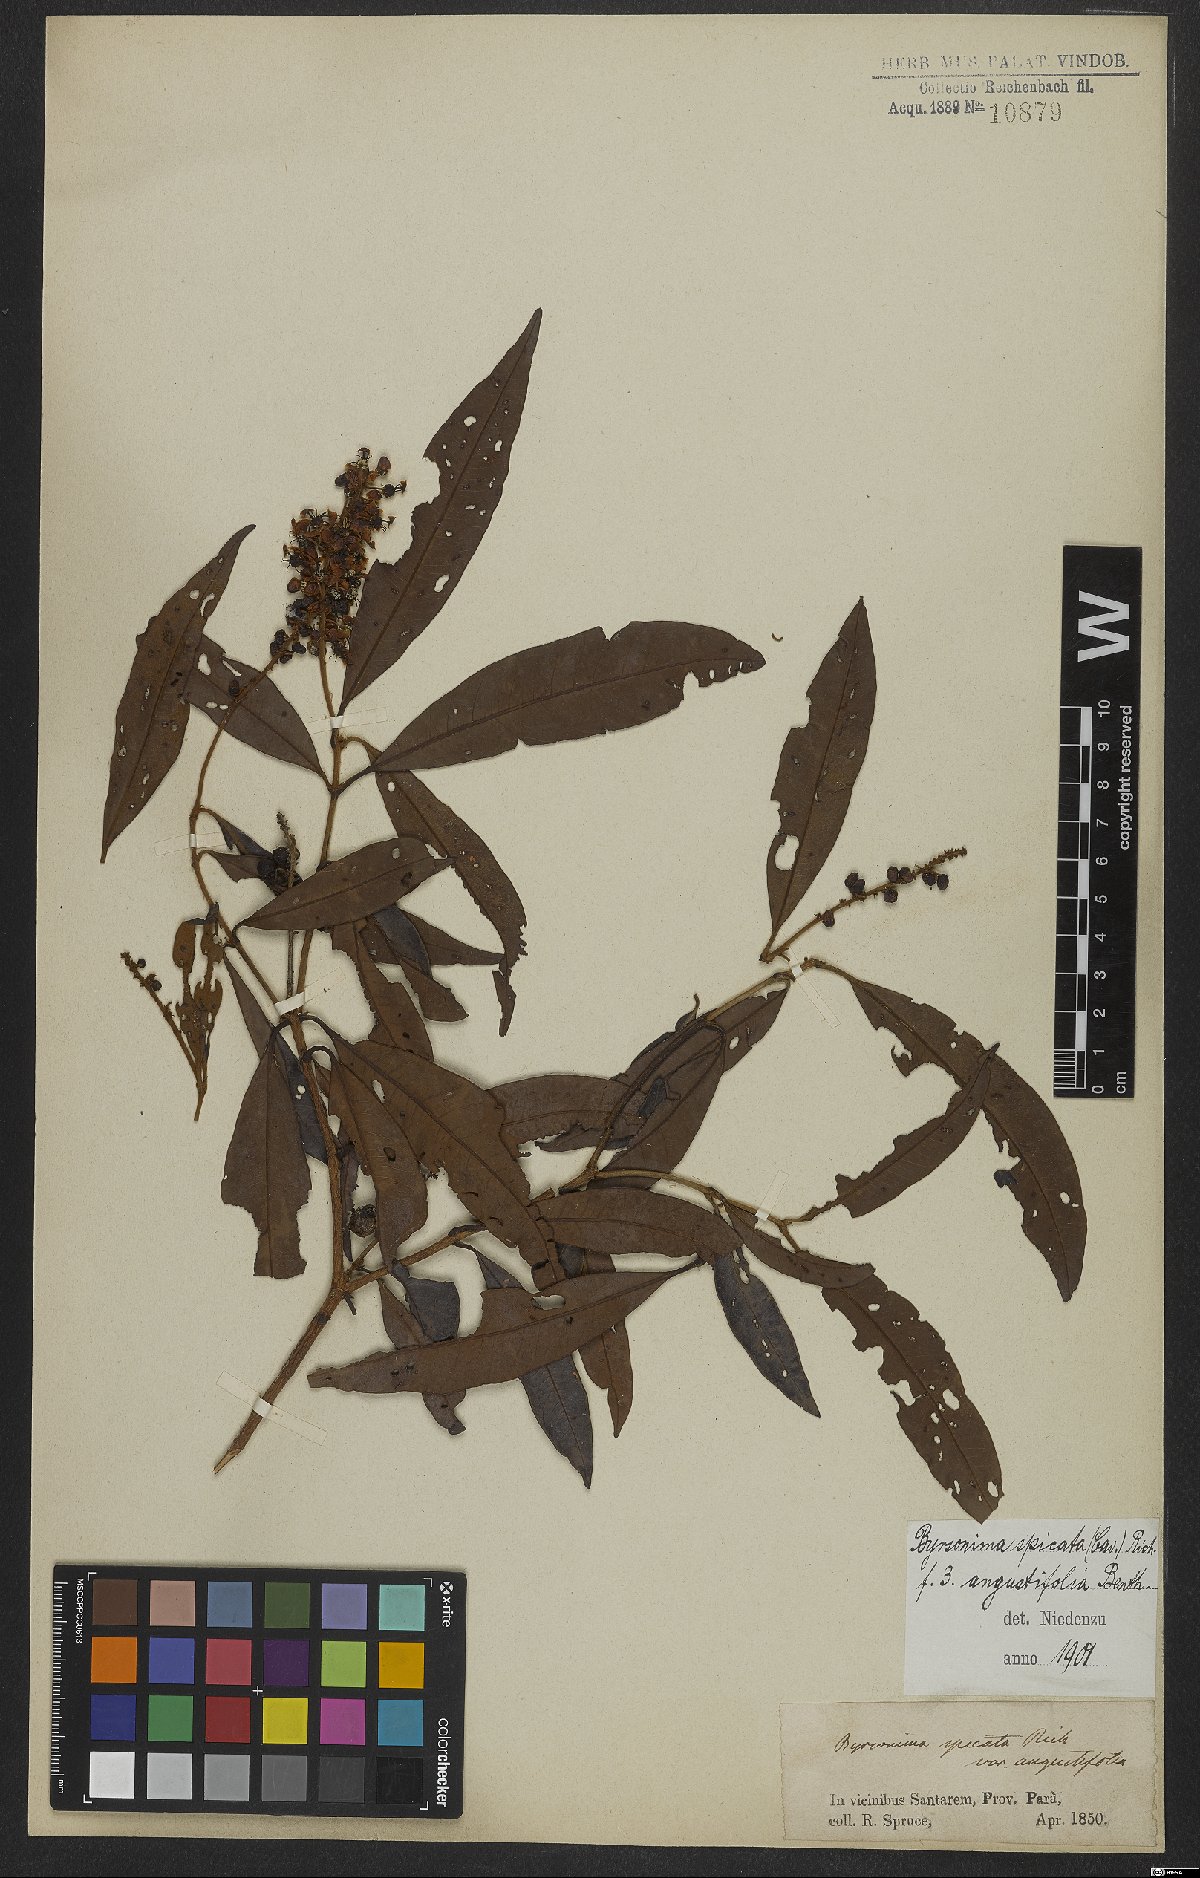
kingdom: Plantae
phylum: Tracheophyta
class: Magnoliopsida
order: Malpighiales
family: Malpighiaceae
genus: Byrsonima
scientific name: Byrsonima spicata
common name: Murixi-bark-tree
